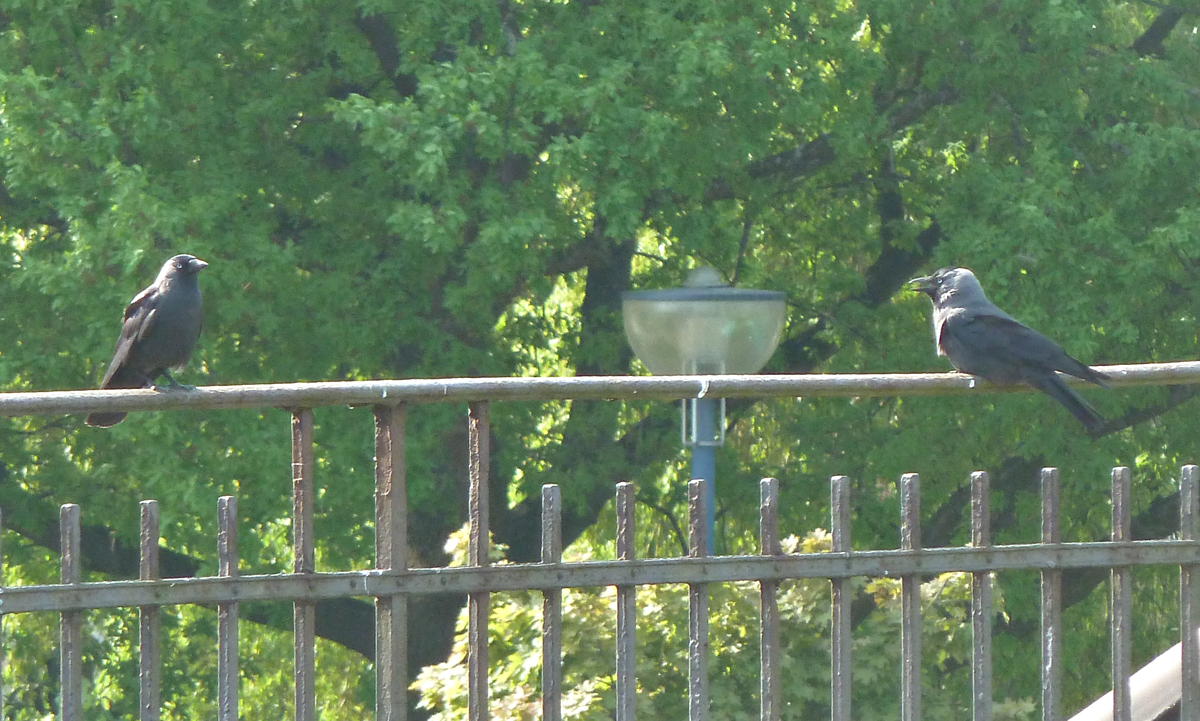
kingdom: Animalia
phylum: Chordata
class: Aves
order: Passeriformes
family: Corvidae
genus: Coloeus
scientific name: Coloeus monedula
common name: Western jackdaw
